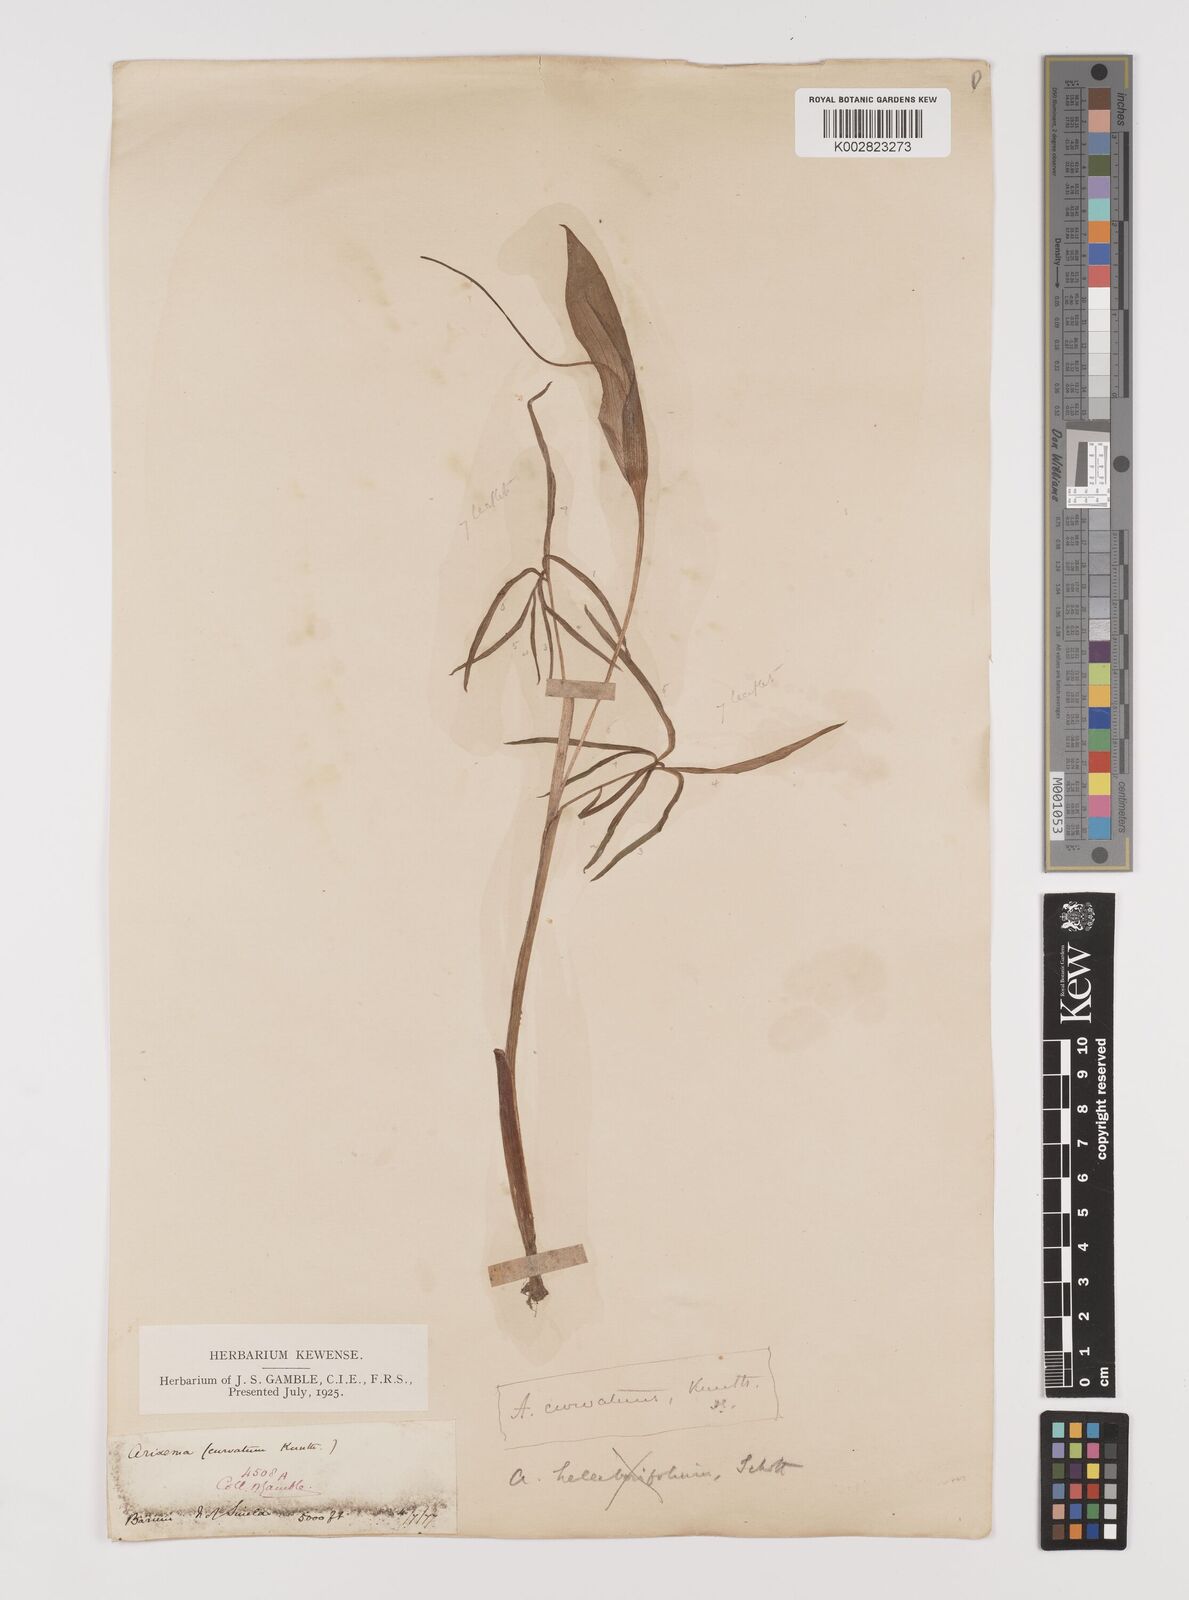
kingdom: Plantae
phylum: Tracheophyta
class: Liliopsida
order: Alismatales
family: Araceae
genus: Arisaema
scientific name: Arisaema tortuosum
